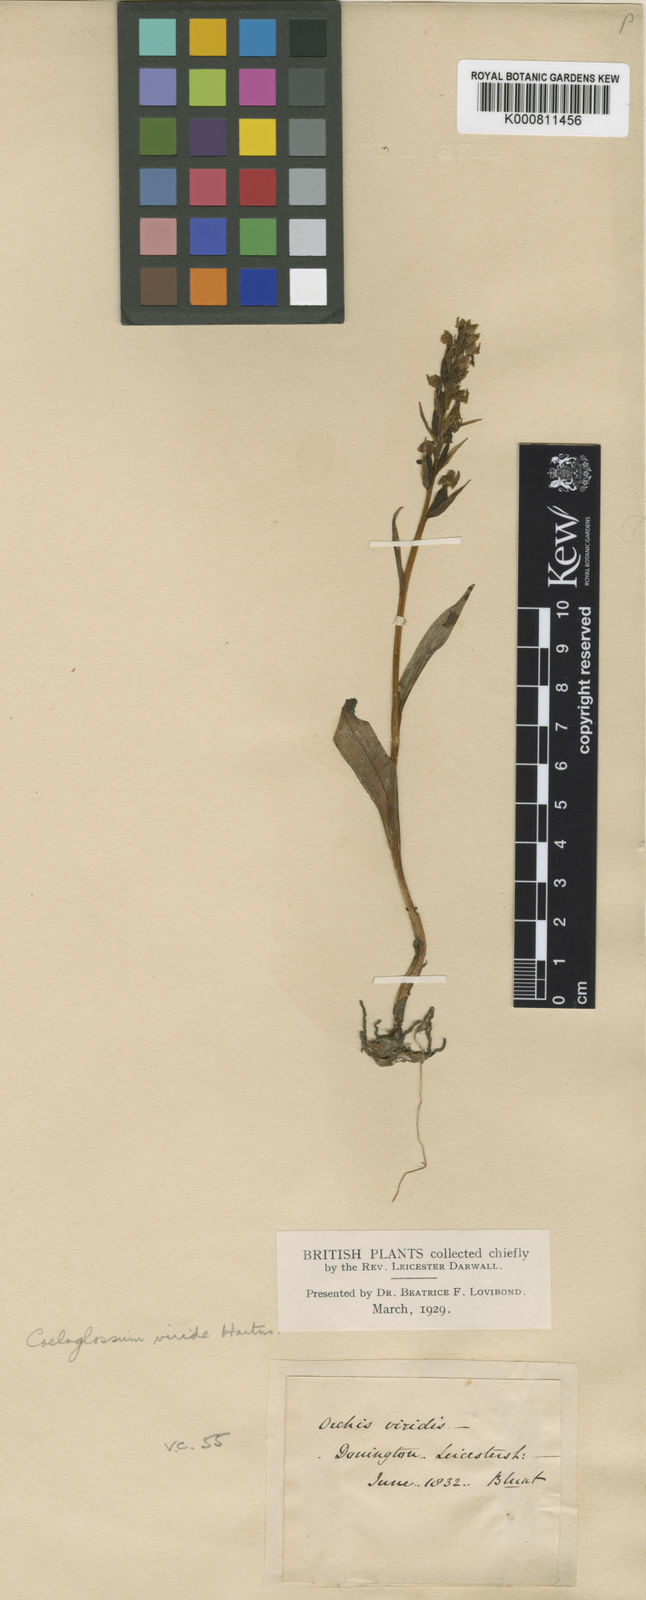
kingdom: Plantae
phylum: Tracheophyta
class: Liliopsida
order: Asparagales
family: Orchidaceae
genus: Dactylorhiza
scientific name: Dactylorhiza viridis
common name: Longbract frog orchid
